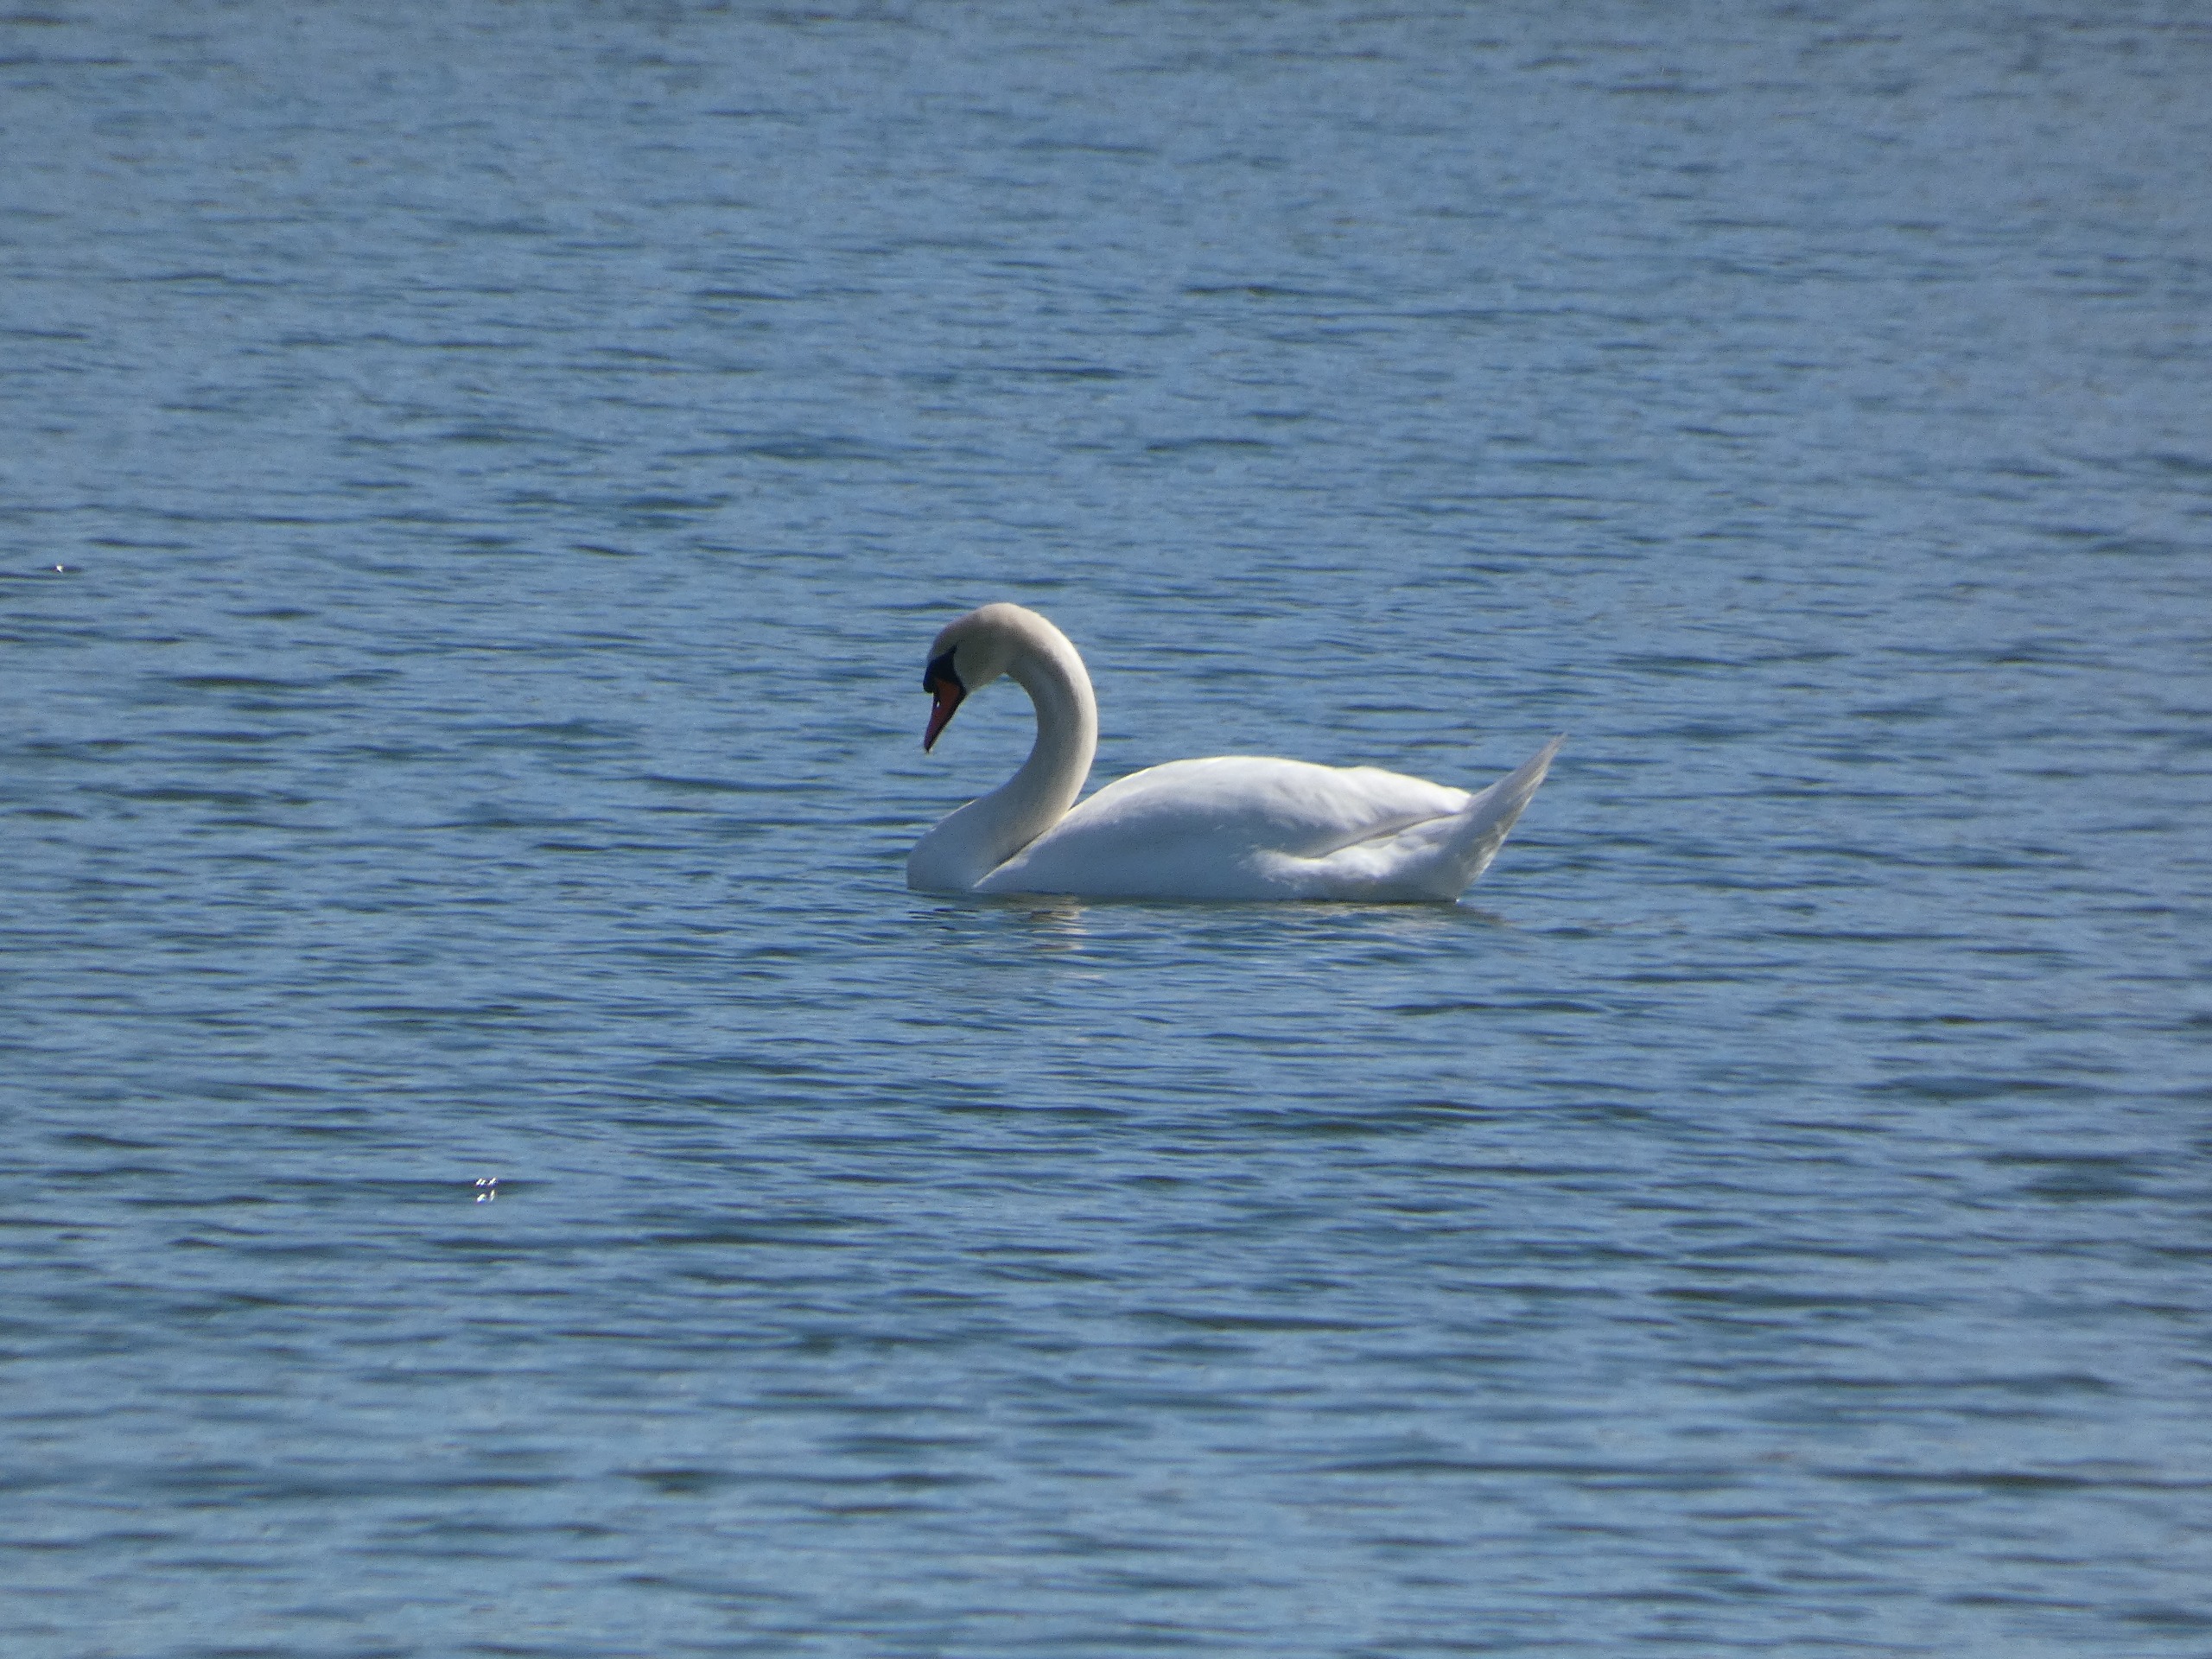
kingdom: Animalia
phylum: Chordata
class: Aves
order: Anseriformes
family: Anatidae
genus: Cygnus
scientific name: Cygnus olor
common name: Knopsvane
